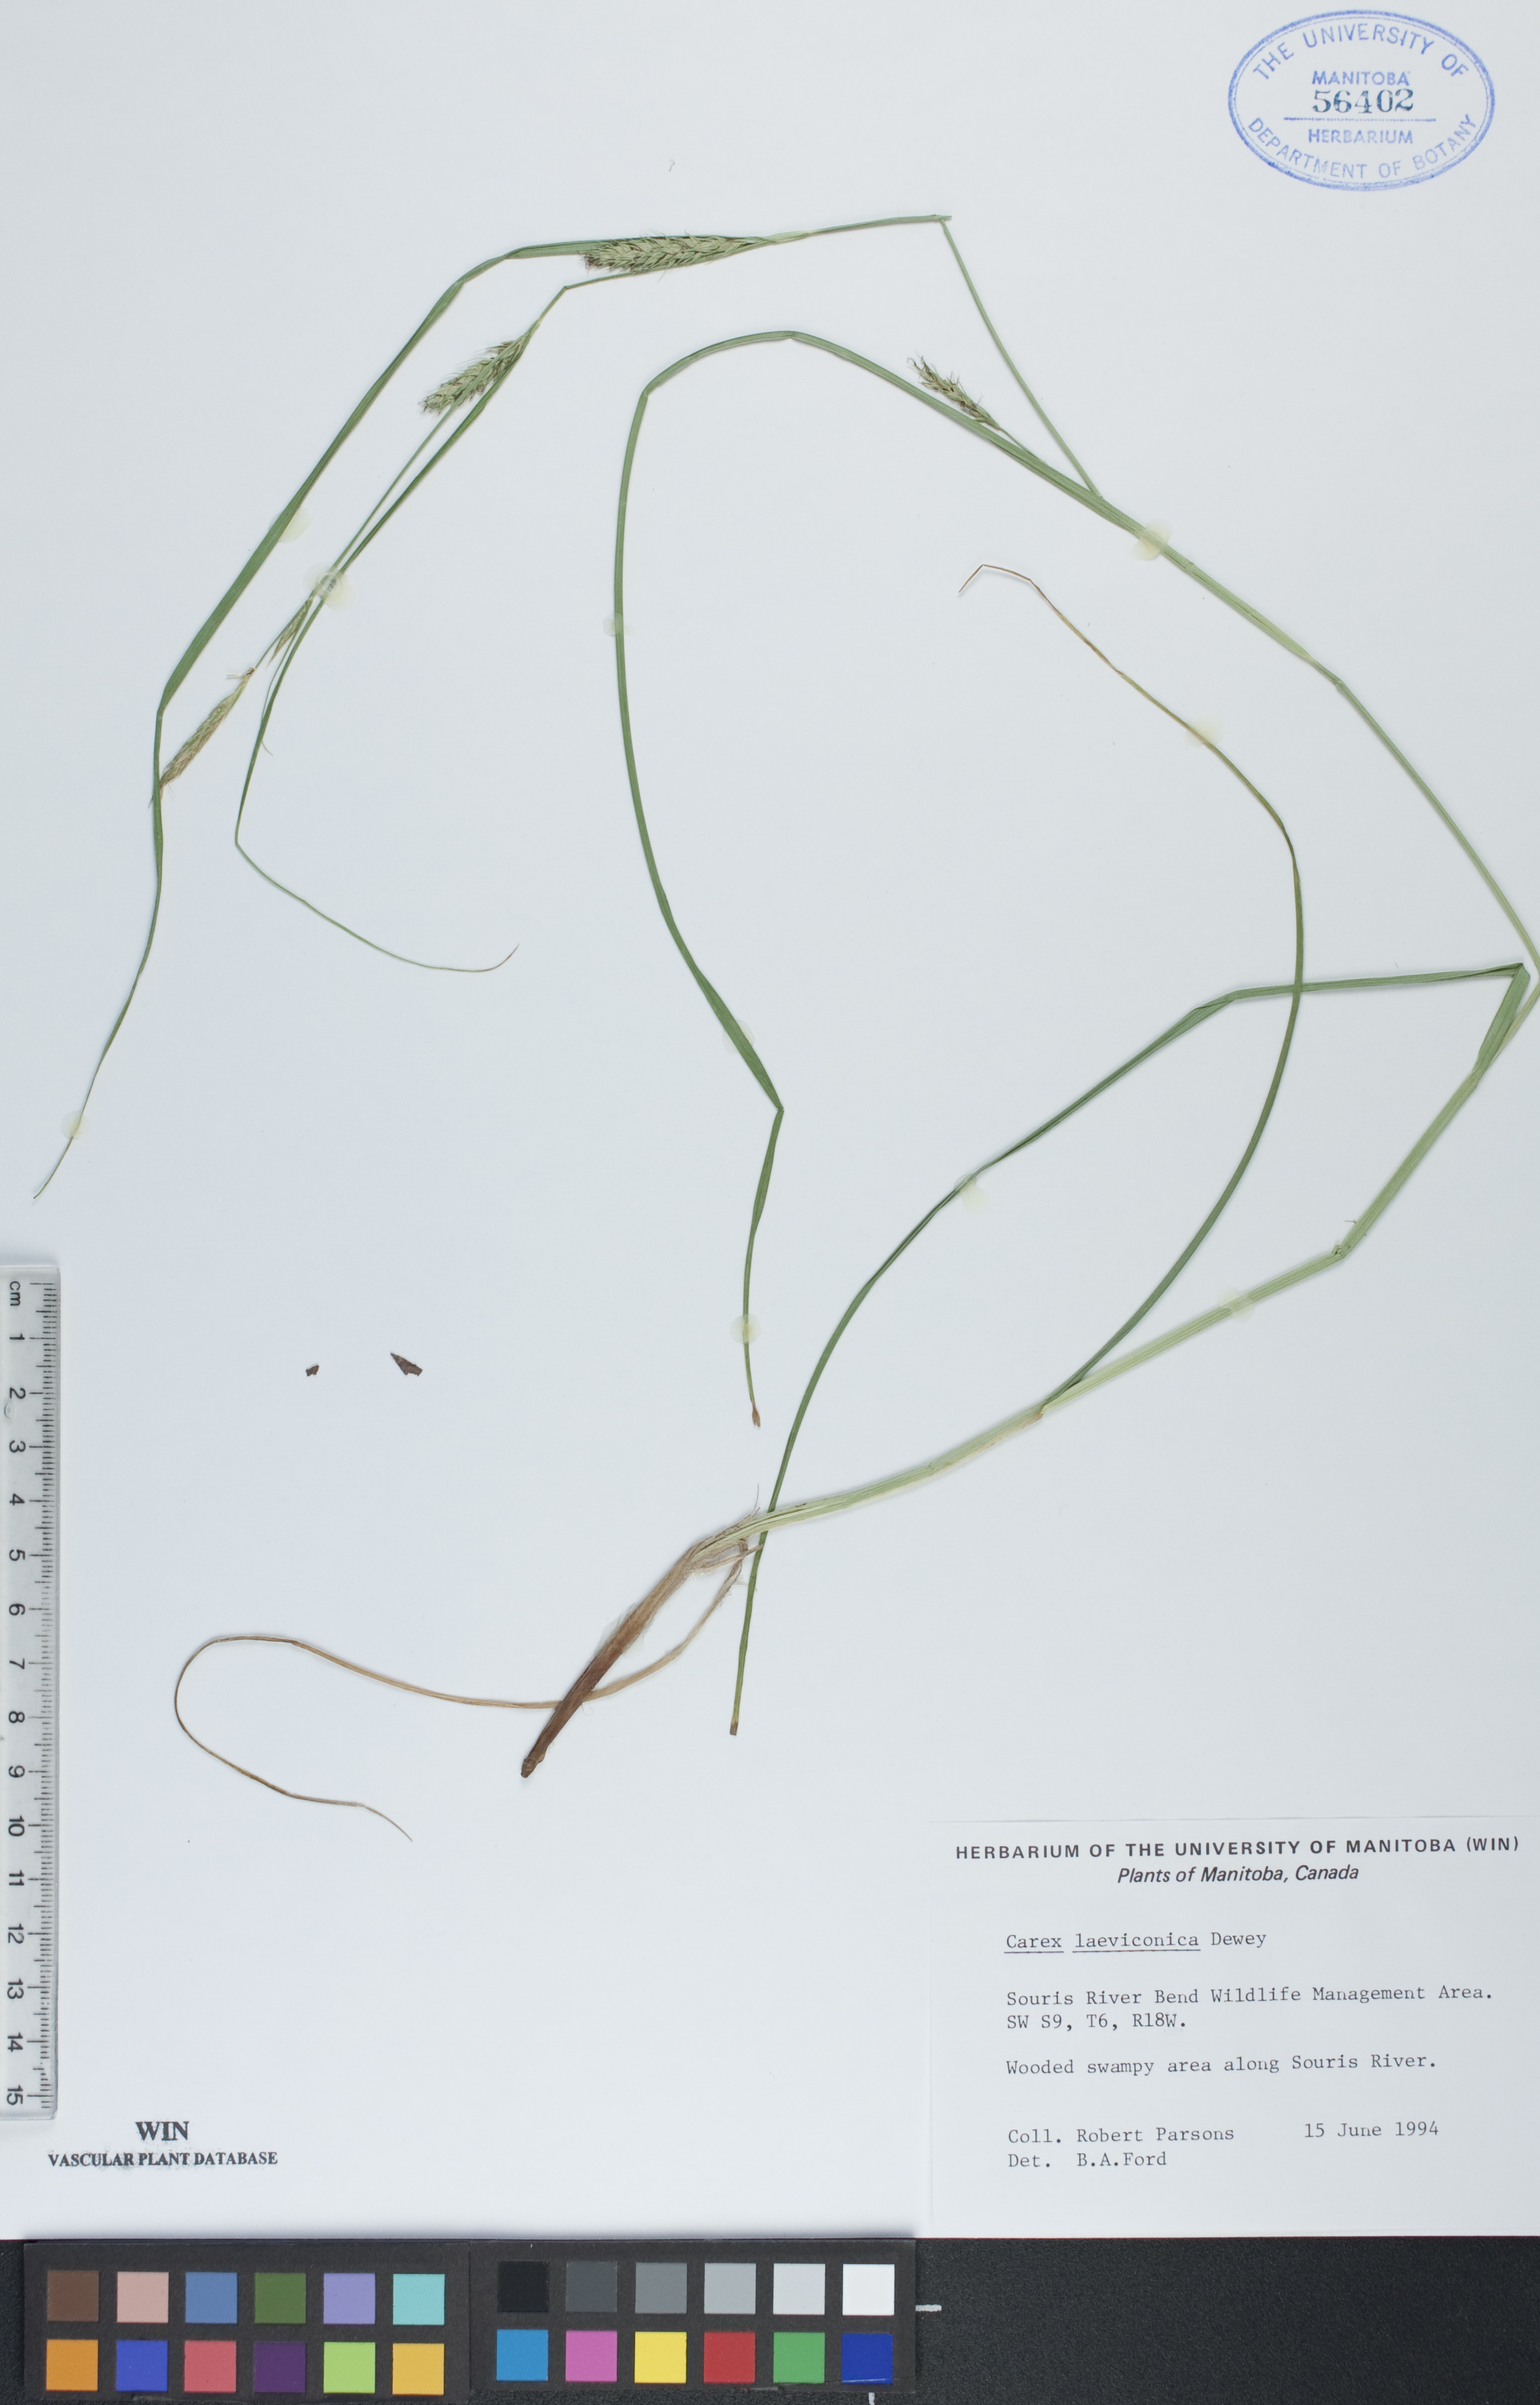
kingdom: Plantae
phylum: Tracheophyta
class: Liliopsida
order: Poales
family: Cyperaceae
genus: Carex
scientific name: Carex laeviconica
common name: Plains slough sedge
